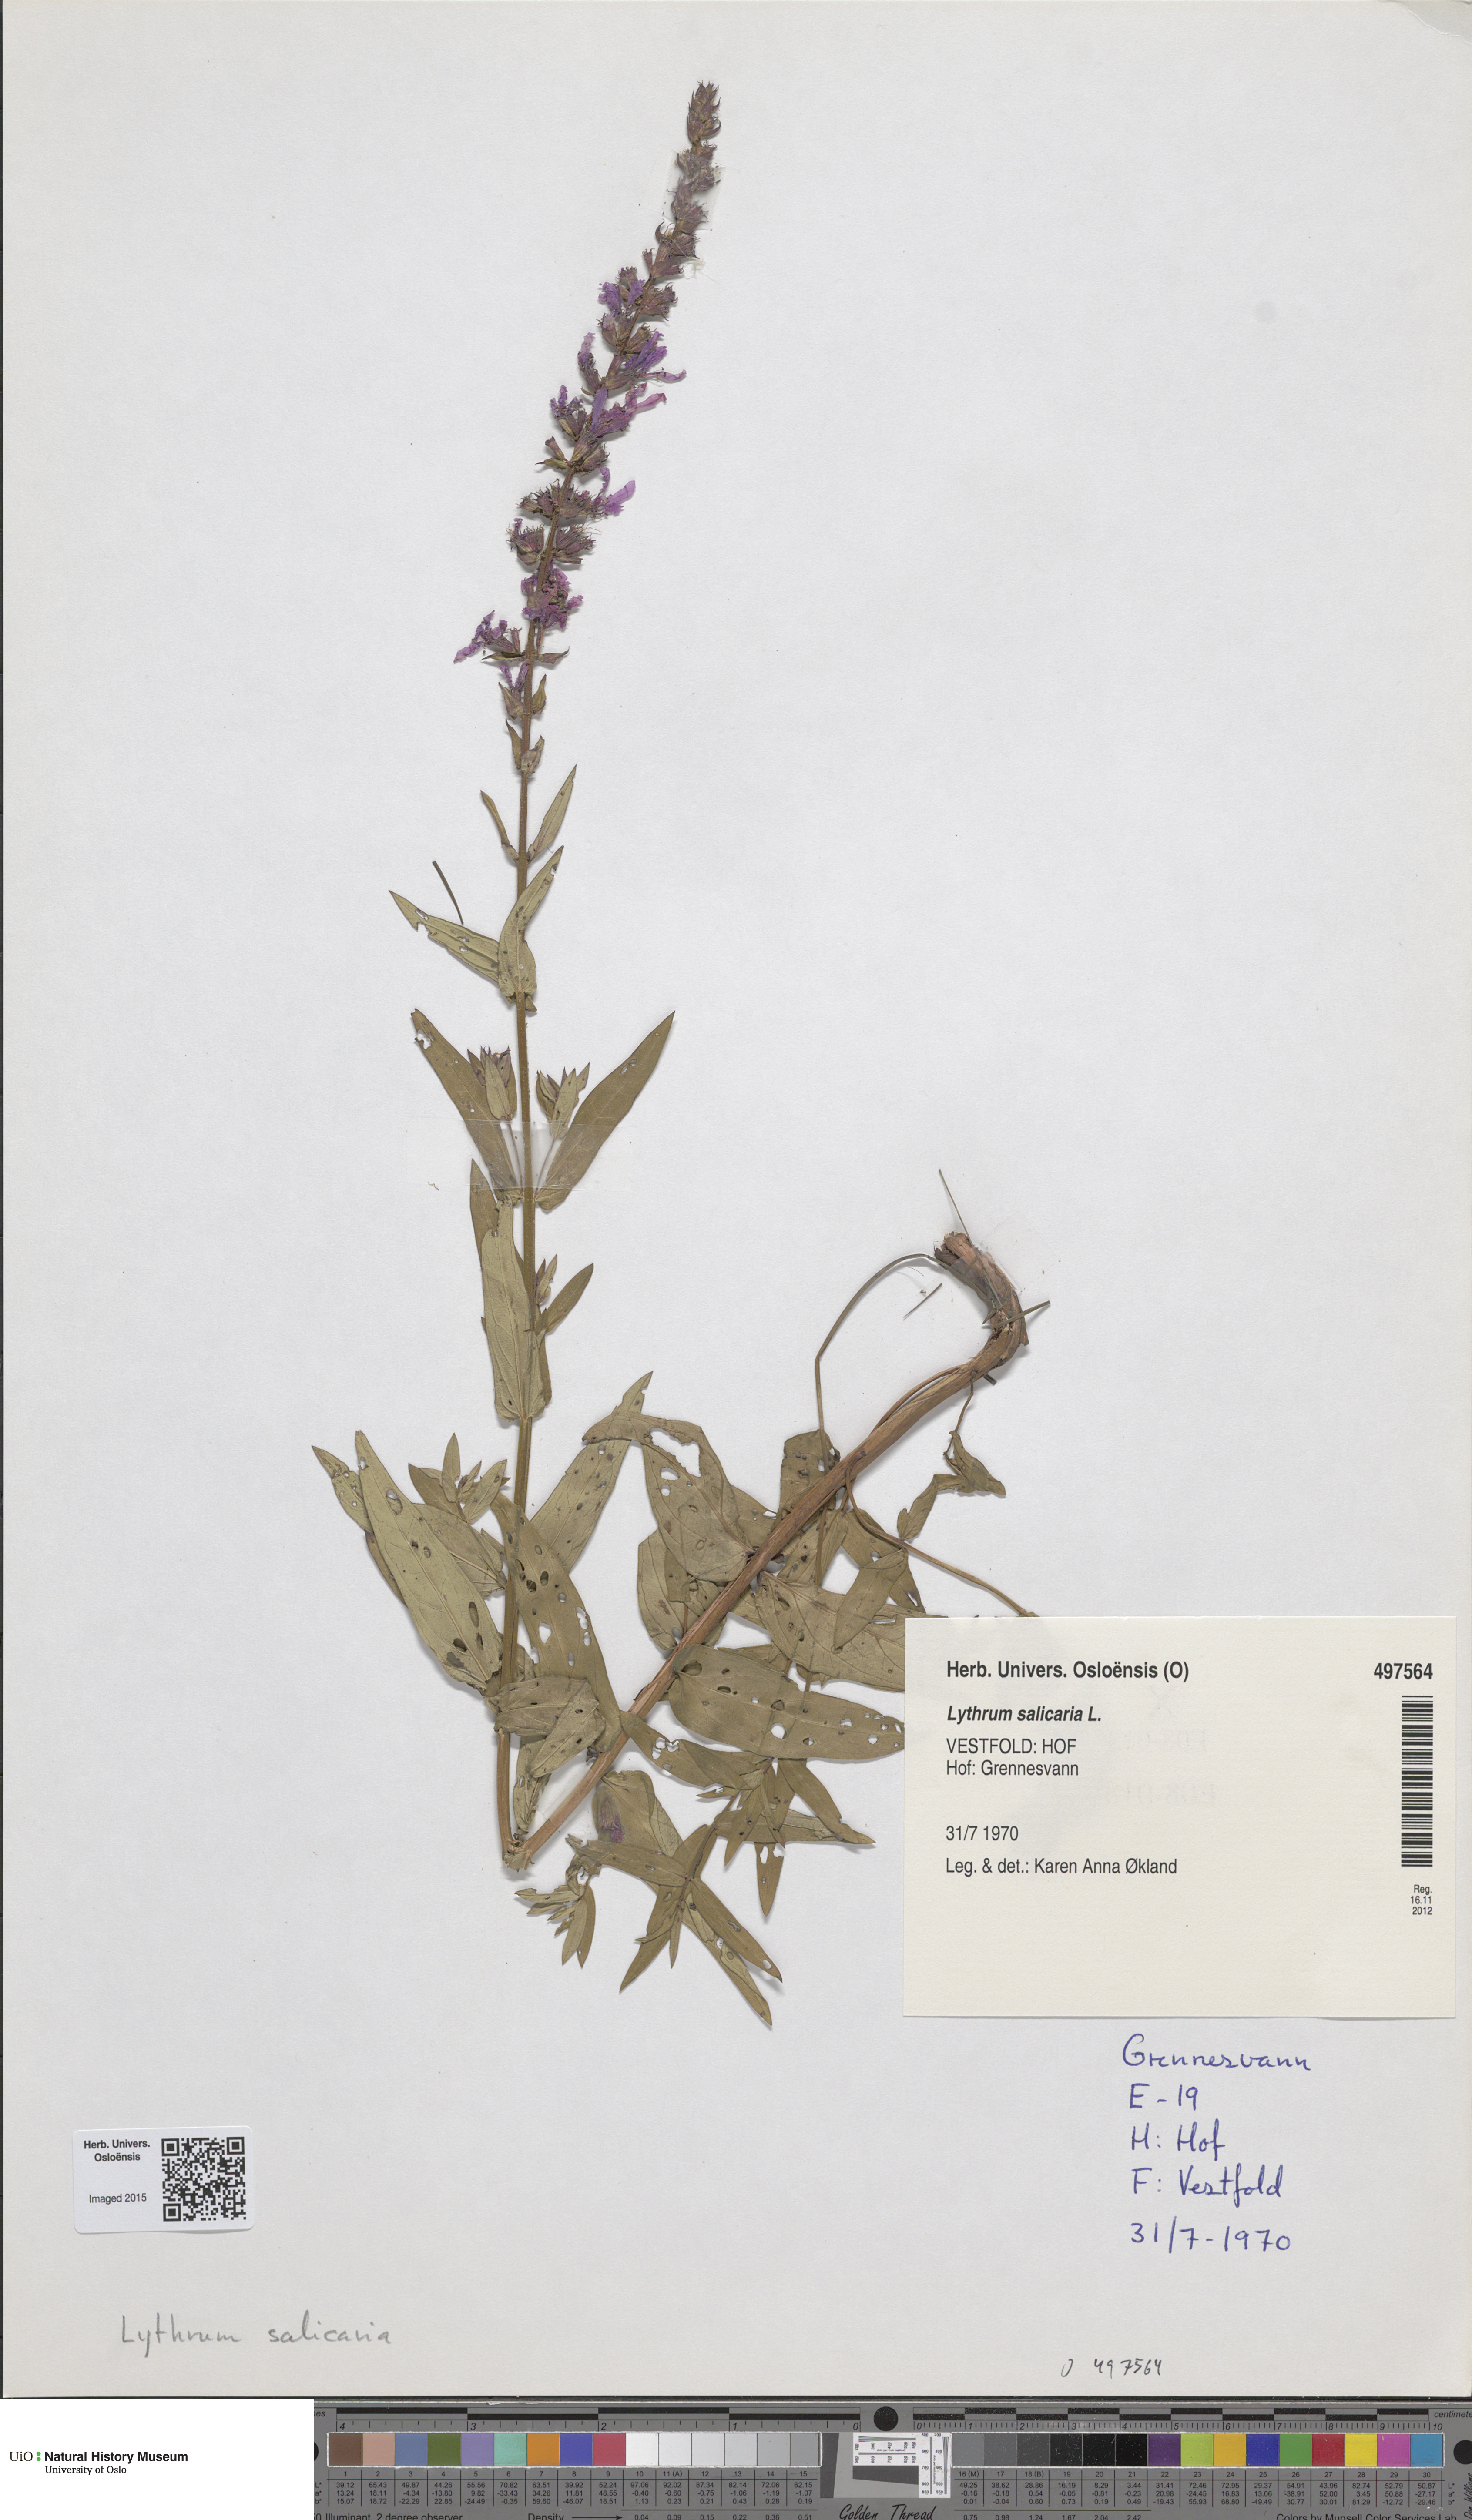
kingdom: Plantae
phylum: Tracheophyta
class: Magnoliopsida
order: Myrtales
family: Lythraceae
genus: Lythrum
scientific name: Lythrum salicaria
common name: Purple loosestrife
